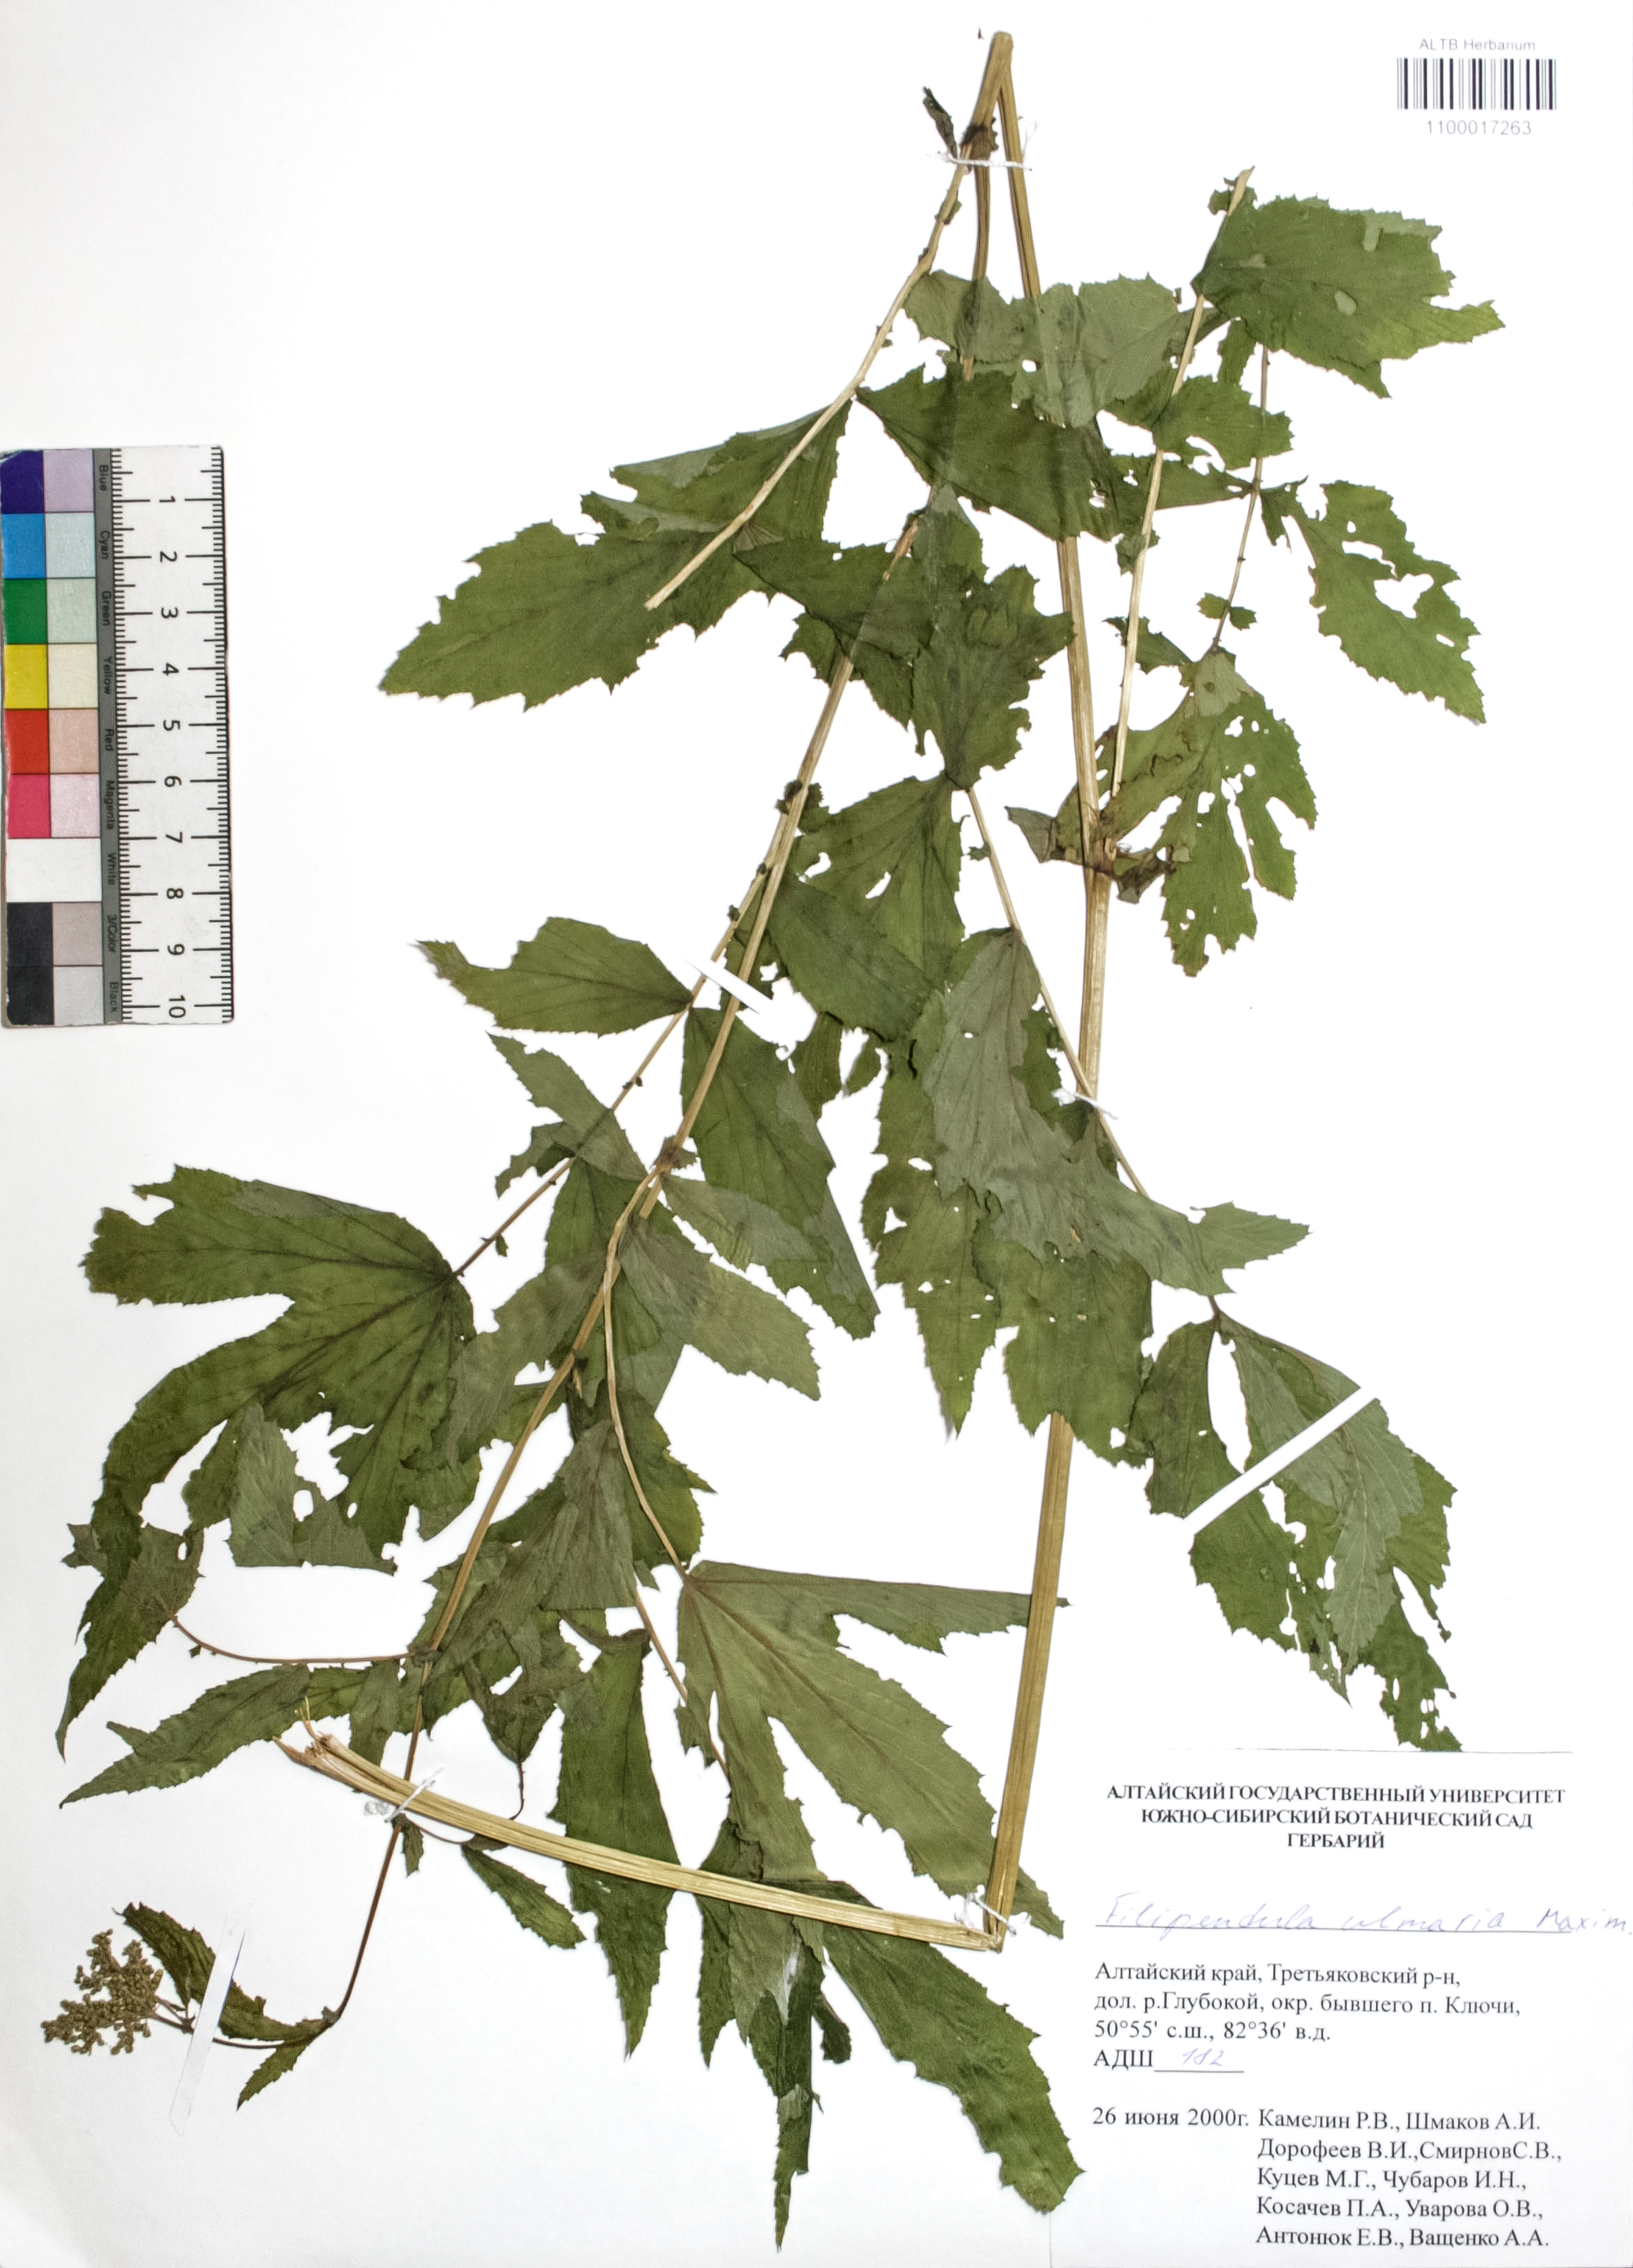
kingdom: Plantae
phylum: Tracheophyta
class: Magnoliopsida
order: Rosales
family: Rosaceae
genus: Filipendula
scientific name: Filipendula ulmaria
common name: Meadowsweet
